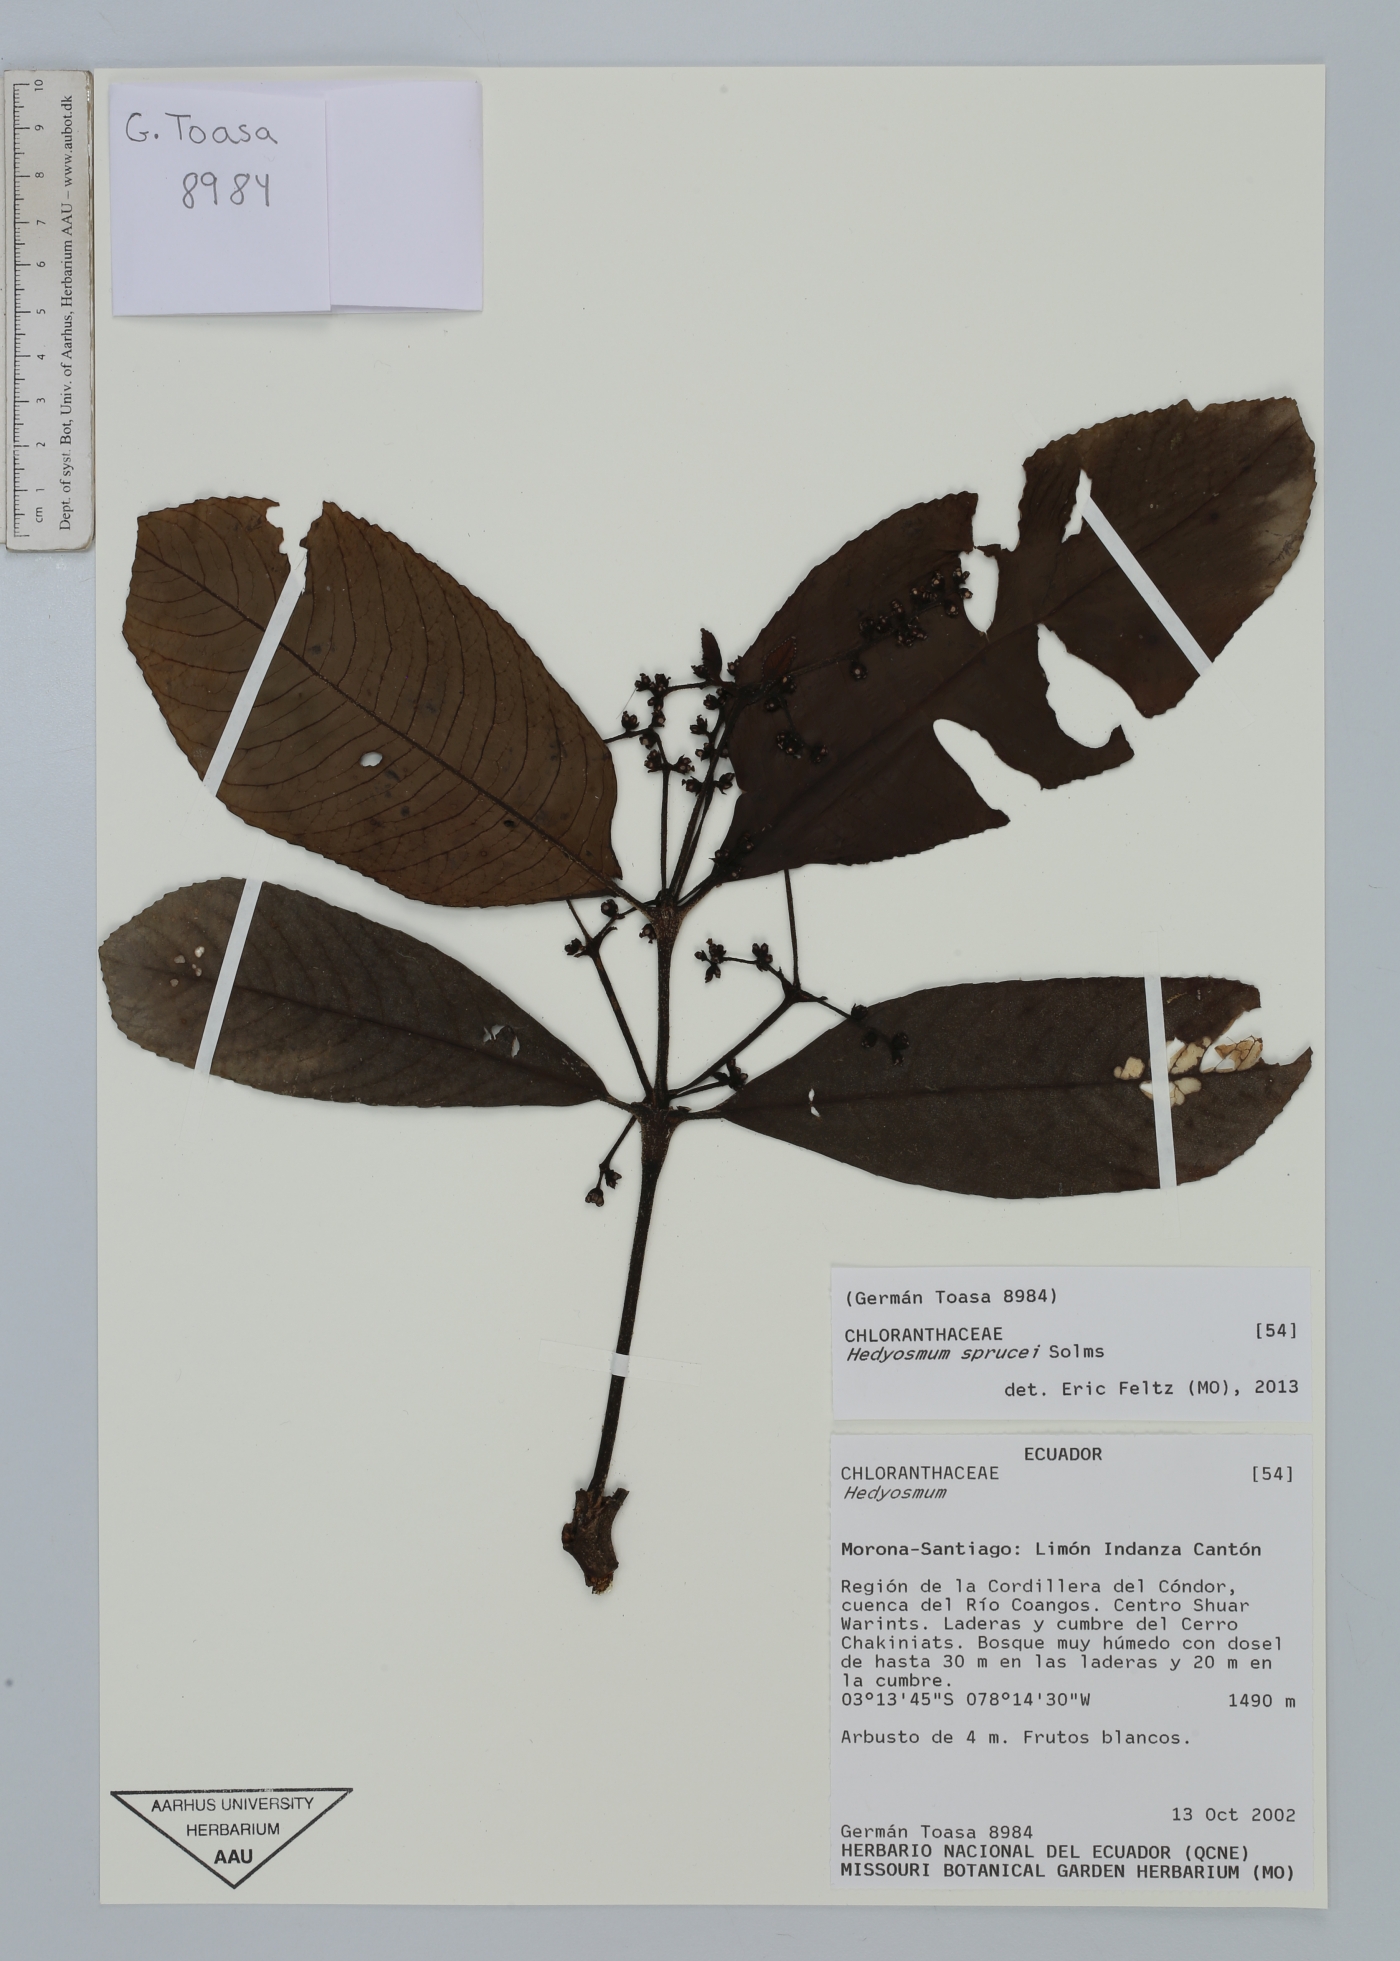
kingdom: Plantae
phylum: Tracheophyta
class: Magnoliopsida
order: Chloranthales
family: Chloranthaceae
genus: Hedyosmum
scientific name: Hedyosmum sprucei
